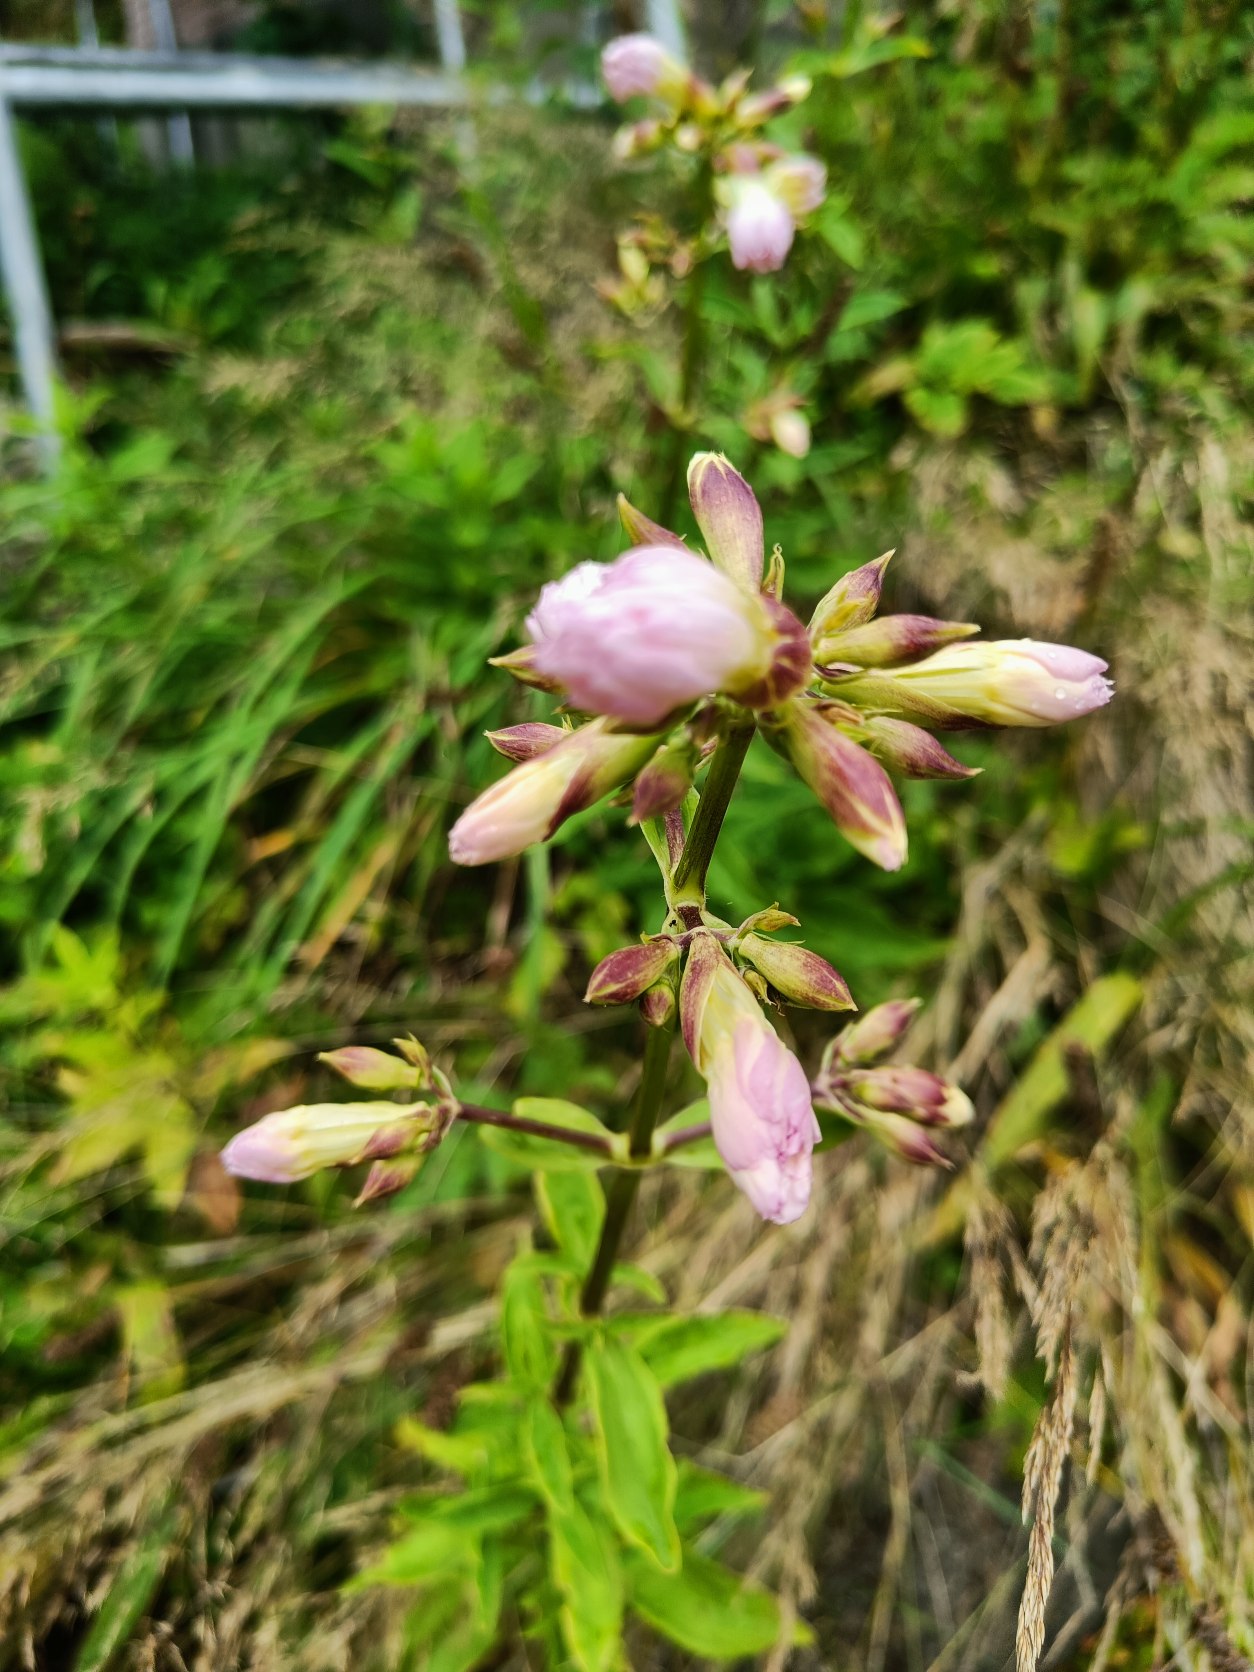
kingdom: Plantae
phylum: Tracheophyta
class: Magnoliopsida
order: Caryophyllales
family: Caryophyllaceae
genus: Saponaria
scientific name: Saponaria officinalis
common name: Sæbeurt
